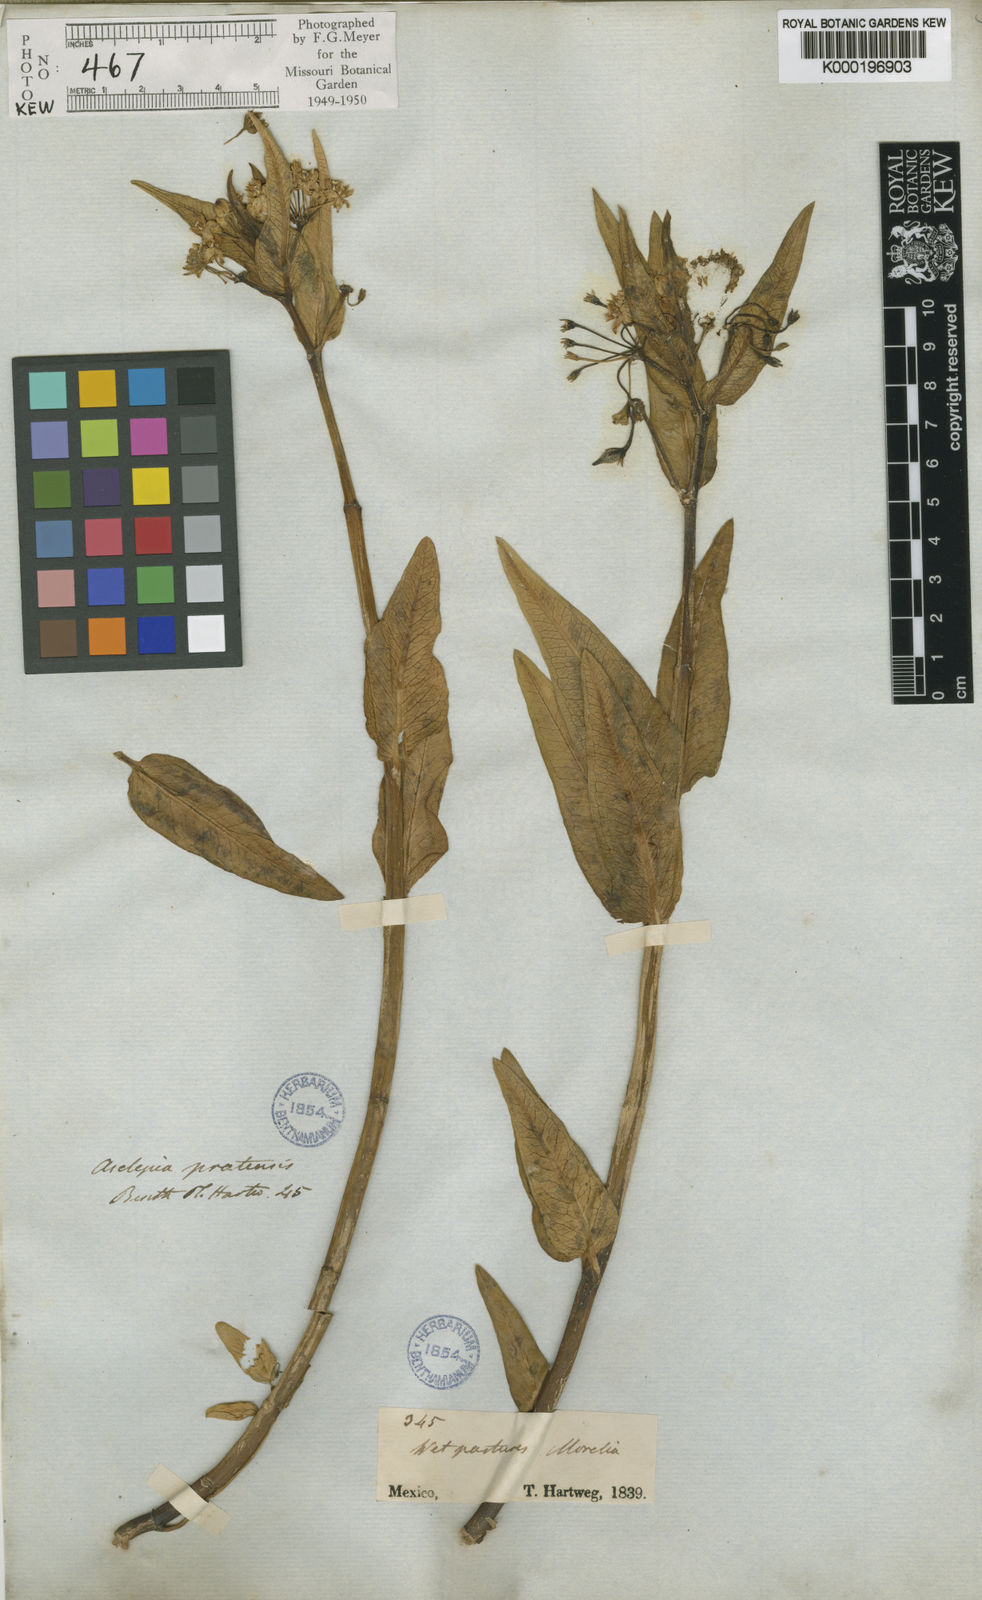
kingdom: Plantae
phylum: Tracheophyta
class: Magnoliopsida
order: Gentianales
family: Apocynaceae
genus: Asclepias
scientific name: Asclepias pratensis
